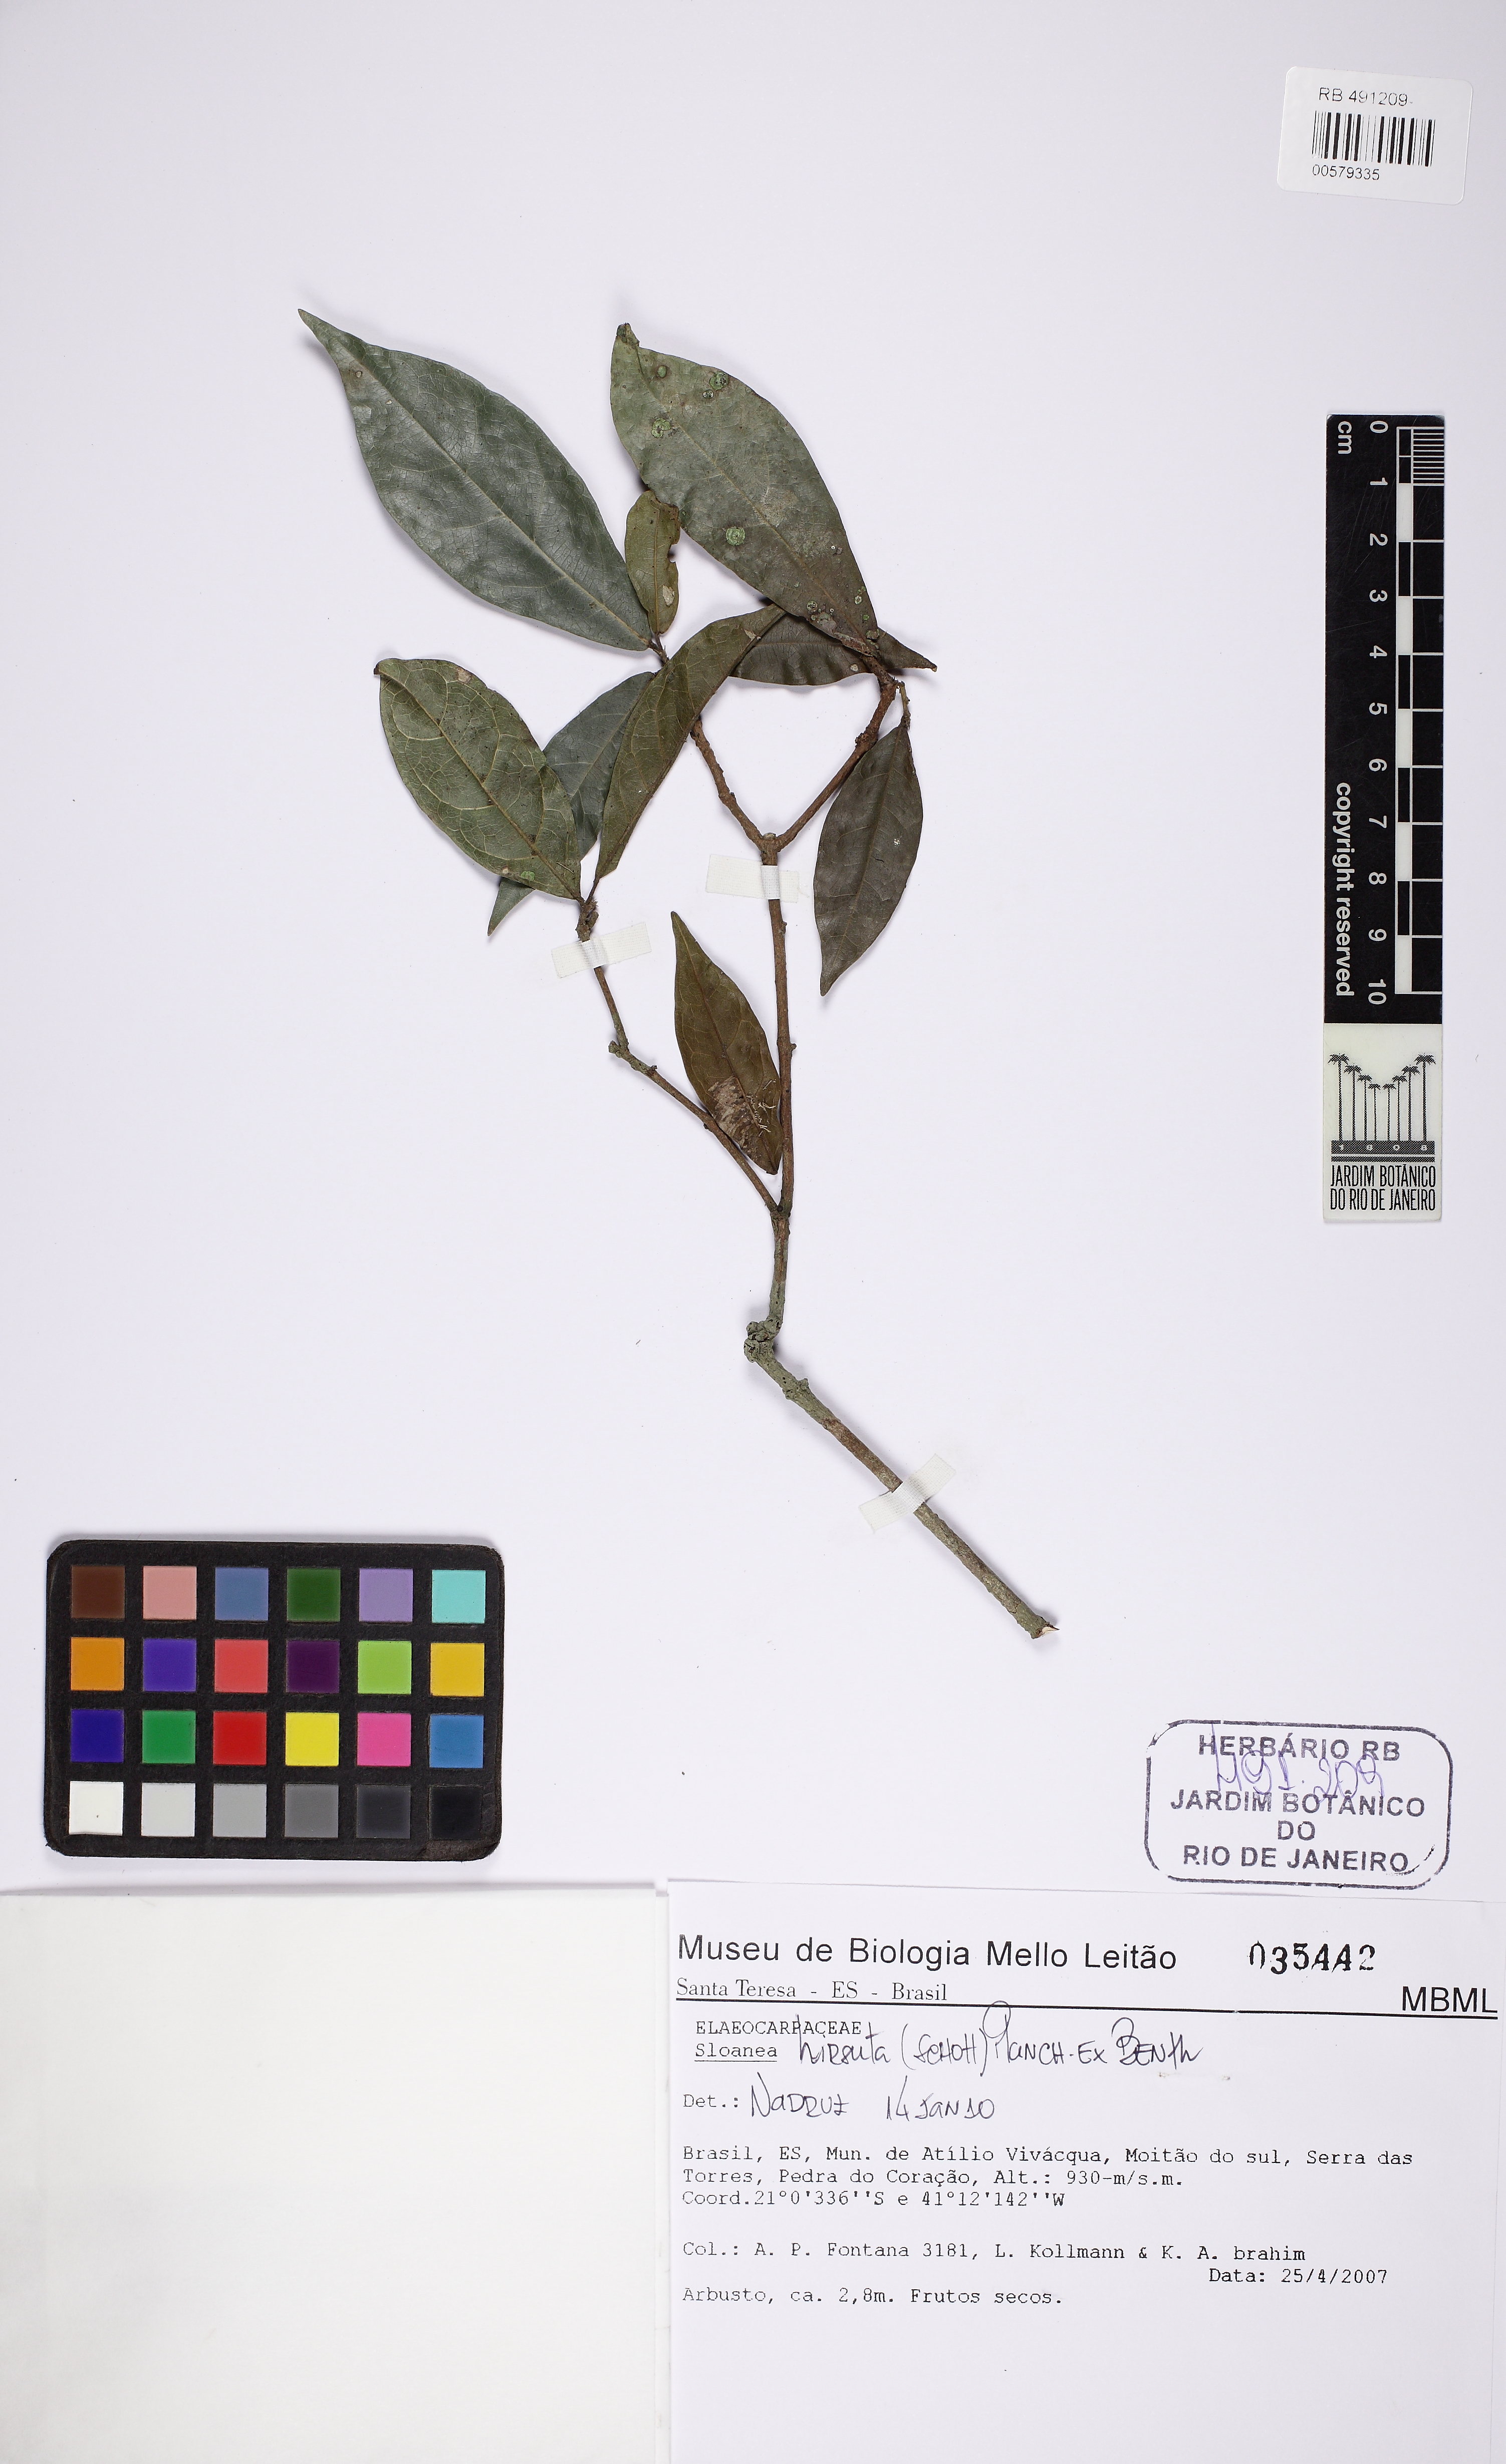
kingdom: Plantae
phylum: Tracheophyta
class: Magnoliopsida
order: Oxalidales
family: Elaeocarpaceae
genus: Sloanea
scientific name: Sloanea hirsuta
